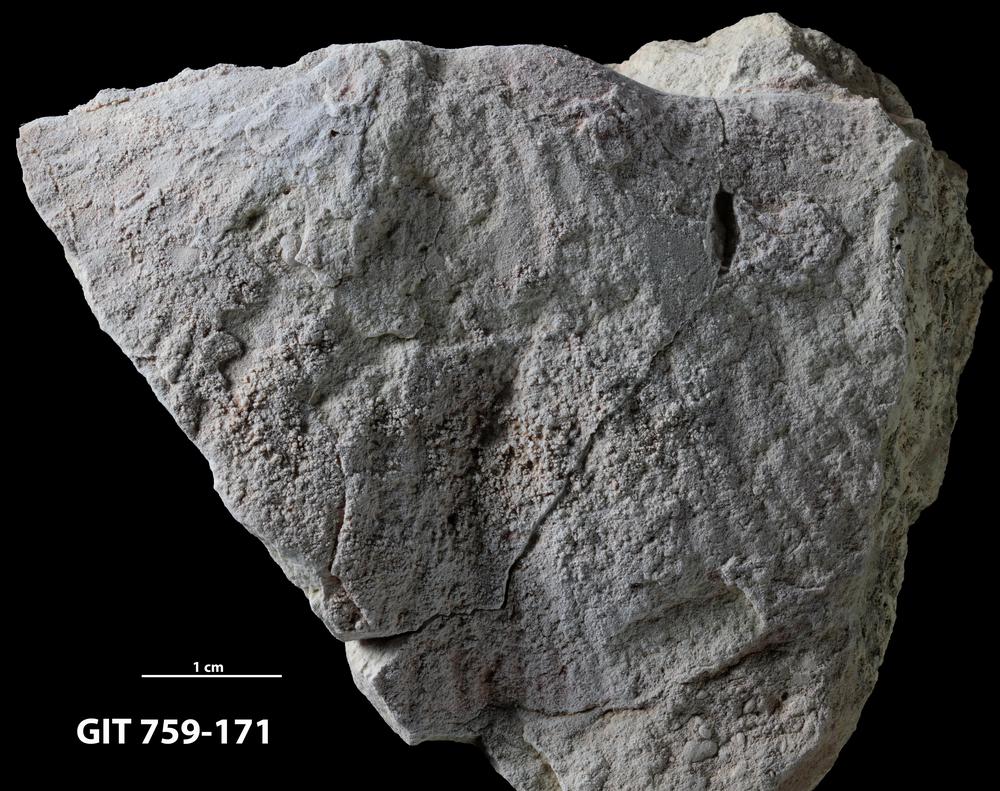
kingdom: Animalia
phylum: Brachiopoda
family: Strophomenidae
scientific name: Strophomenidae
